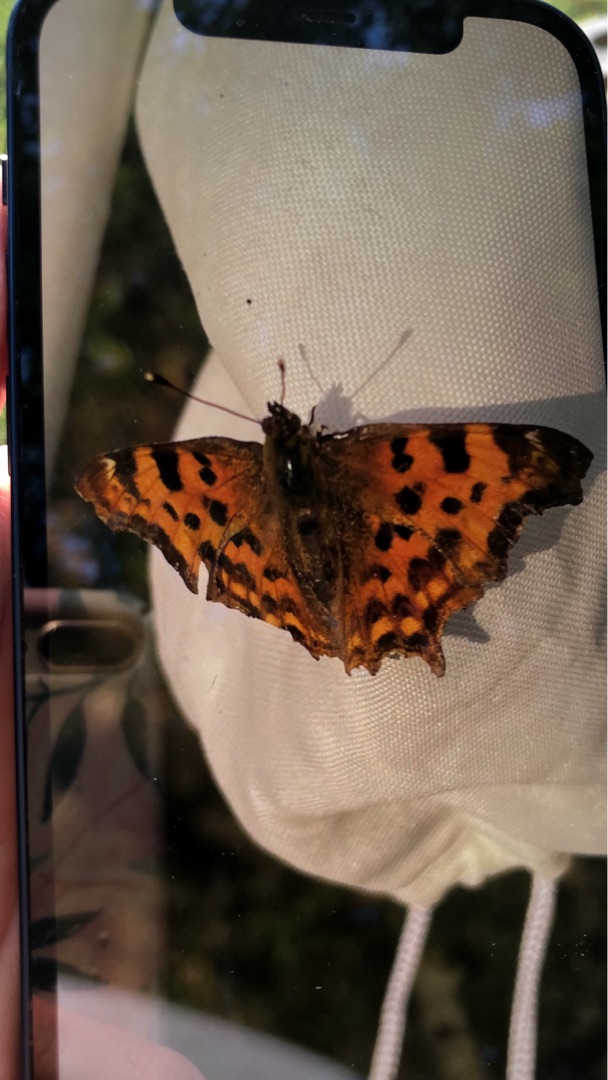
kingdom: Animalia
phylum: Arthropoda
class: Insecta
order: Lepidoptera
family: Nymphalidae
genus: Polygonia
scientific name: Polygonia c-album
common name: Det hvide C
